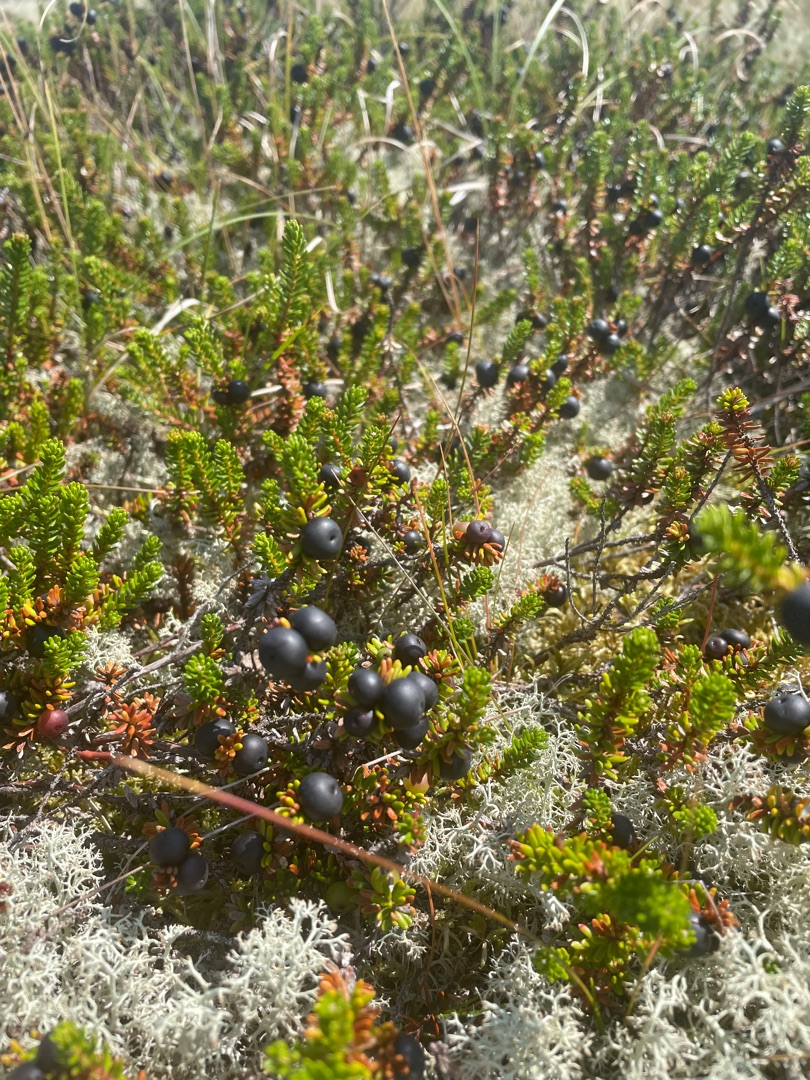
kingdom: Plantae
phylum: Tracheophyta
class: Magnoliopsida
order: Ericales
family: Ericaceae
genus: Empetrum
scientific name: Empetrum nigrum
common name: Revling
